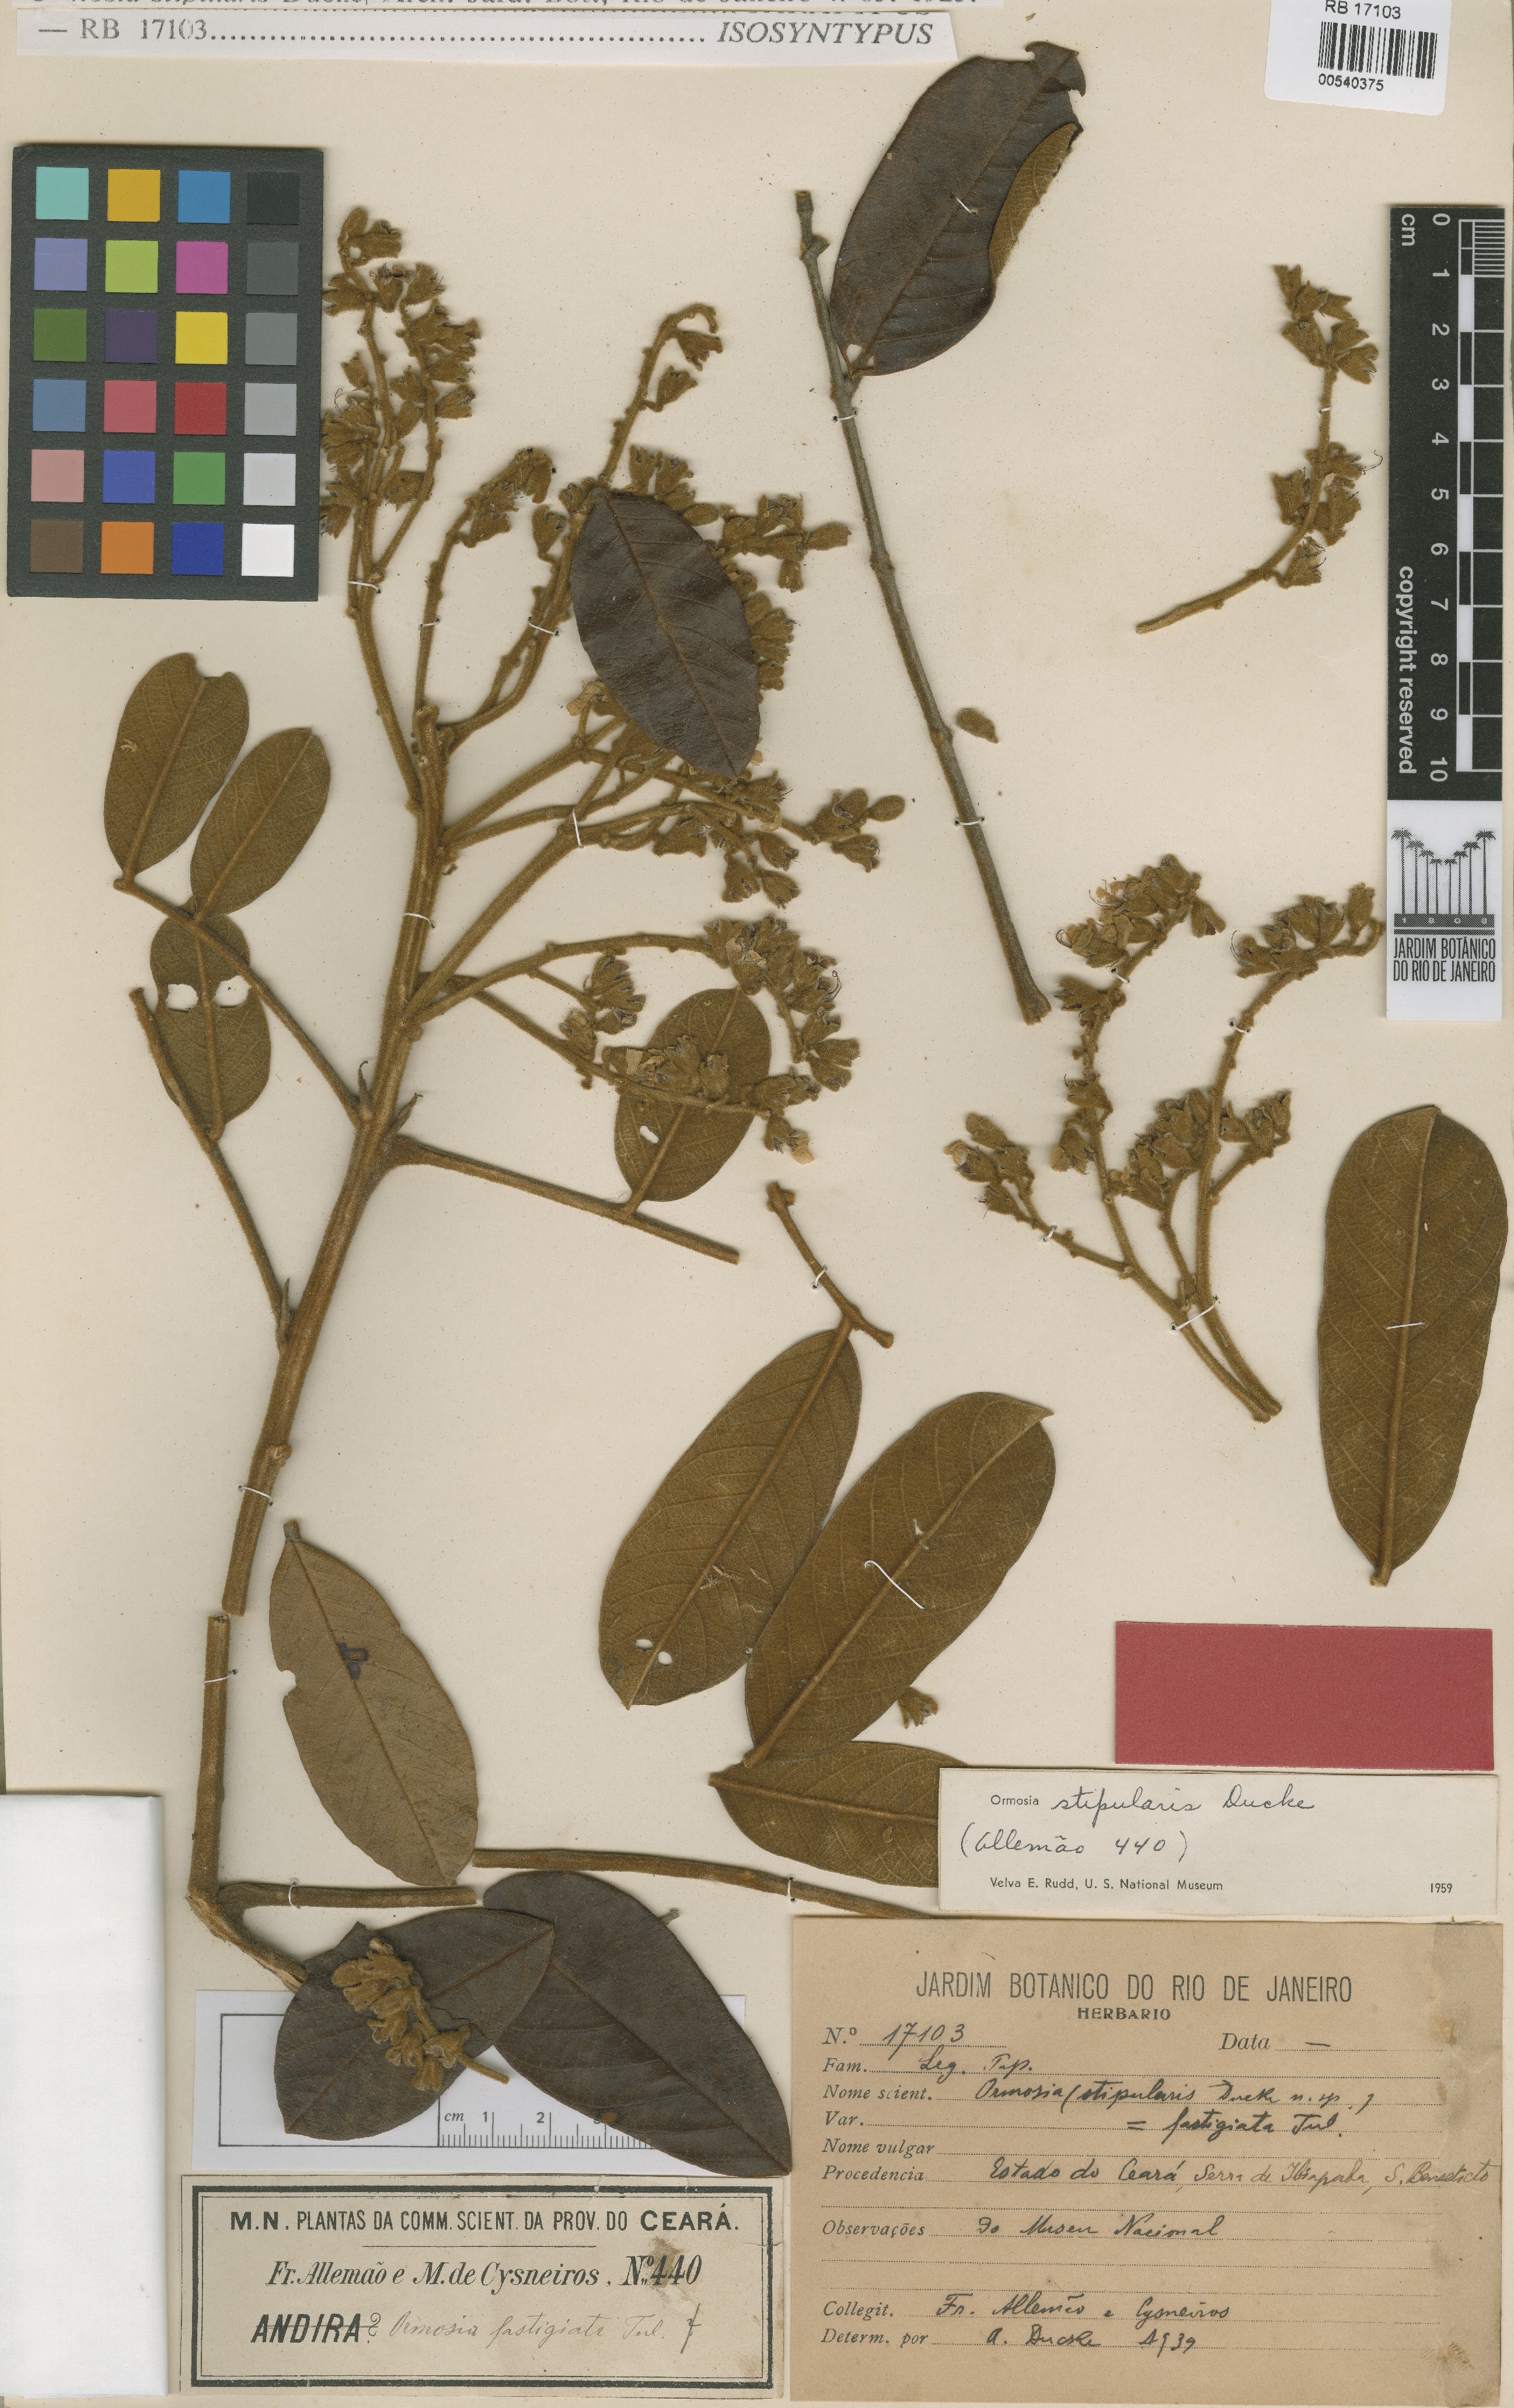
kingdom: Plantae
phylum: Tracheophyta
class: Magnoliopsida
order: Fabales
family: Fabaceae
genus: Ormosia
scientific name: Ormosia stipularis
